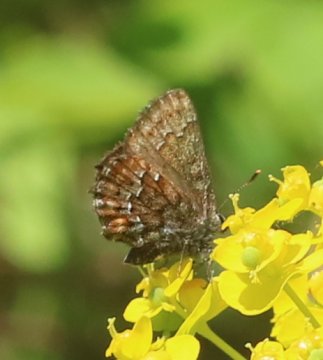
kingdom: Animalia
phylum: Arthropoda
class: Insecta
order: Lepidoptera
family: Lycaenidae
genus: Incisalia
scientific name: Incisalia niphon
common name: Eastern Pine Elfin
